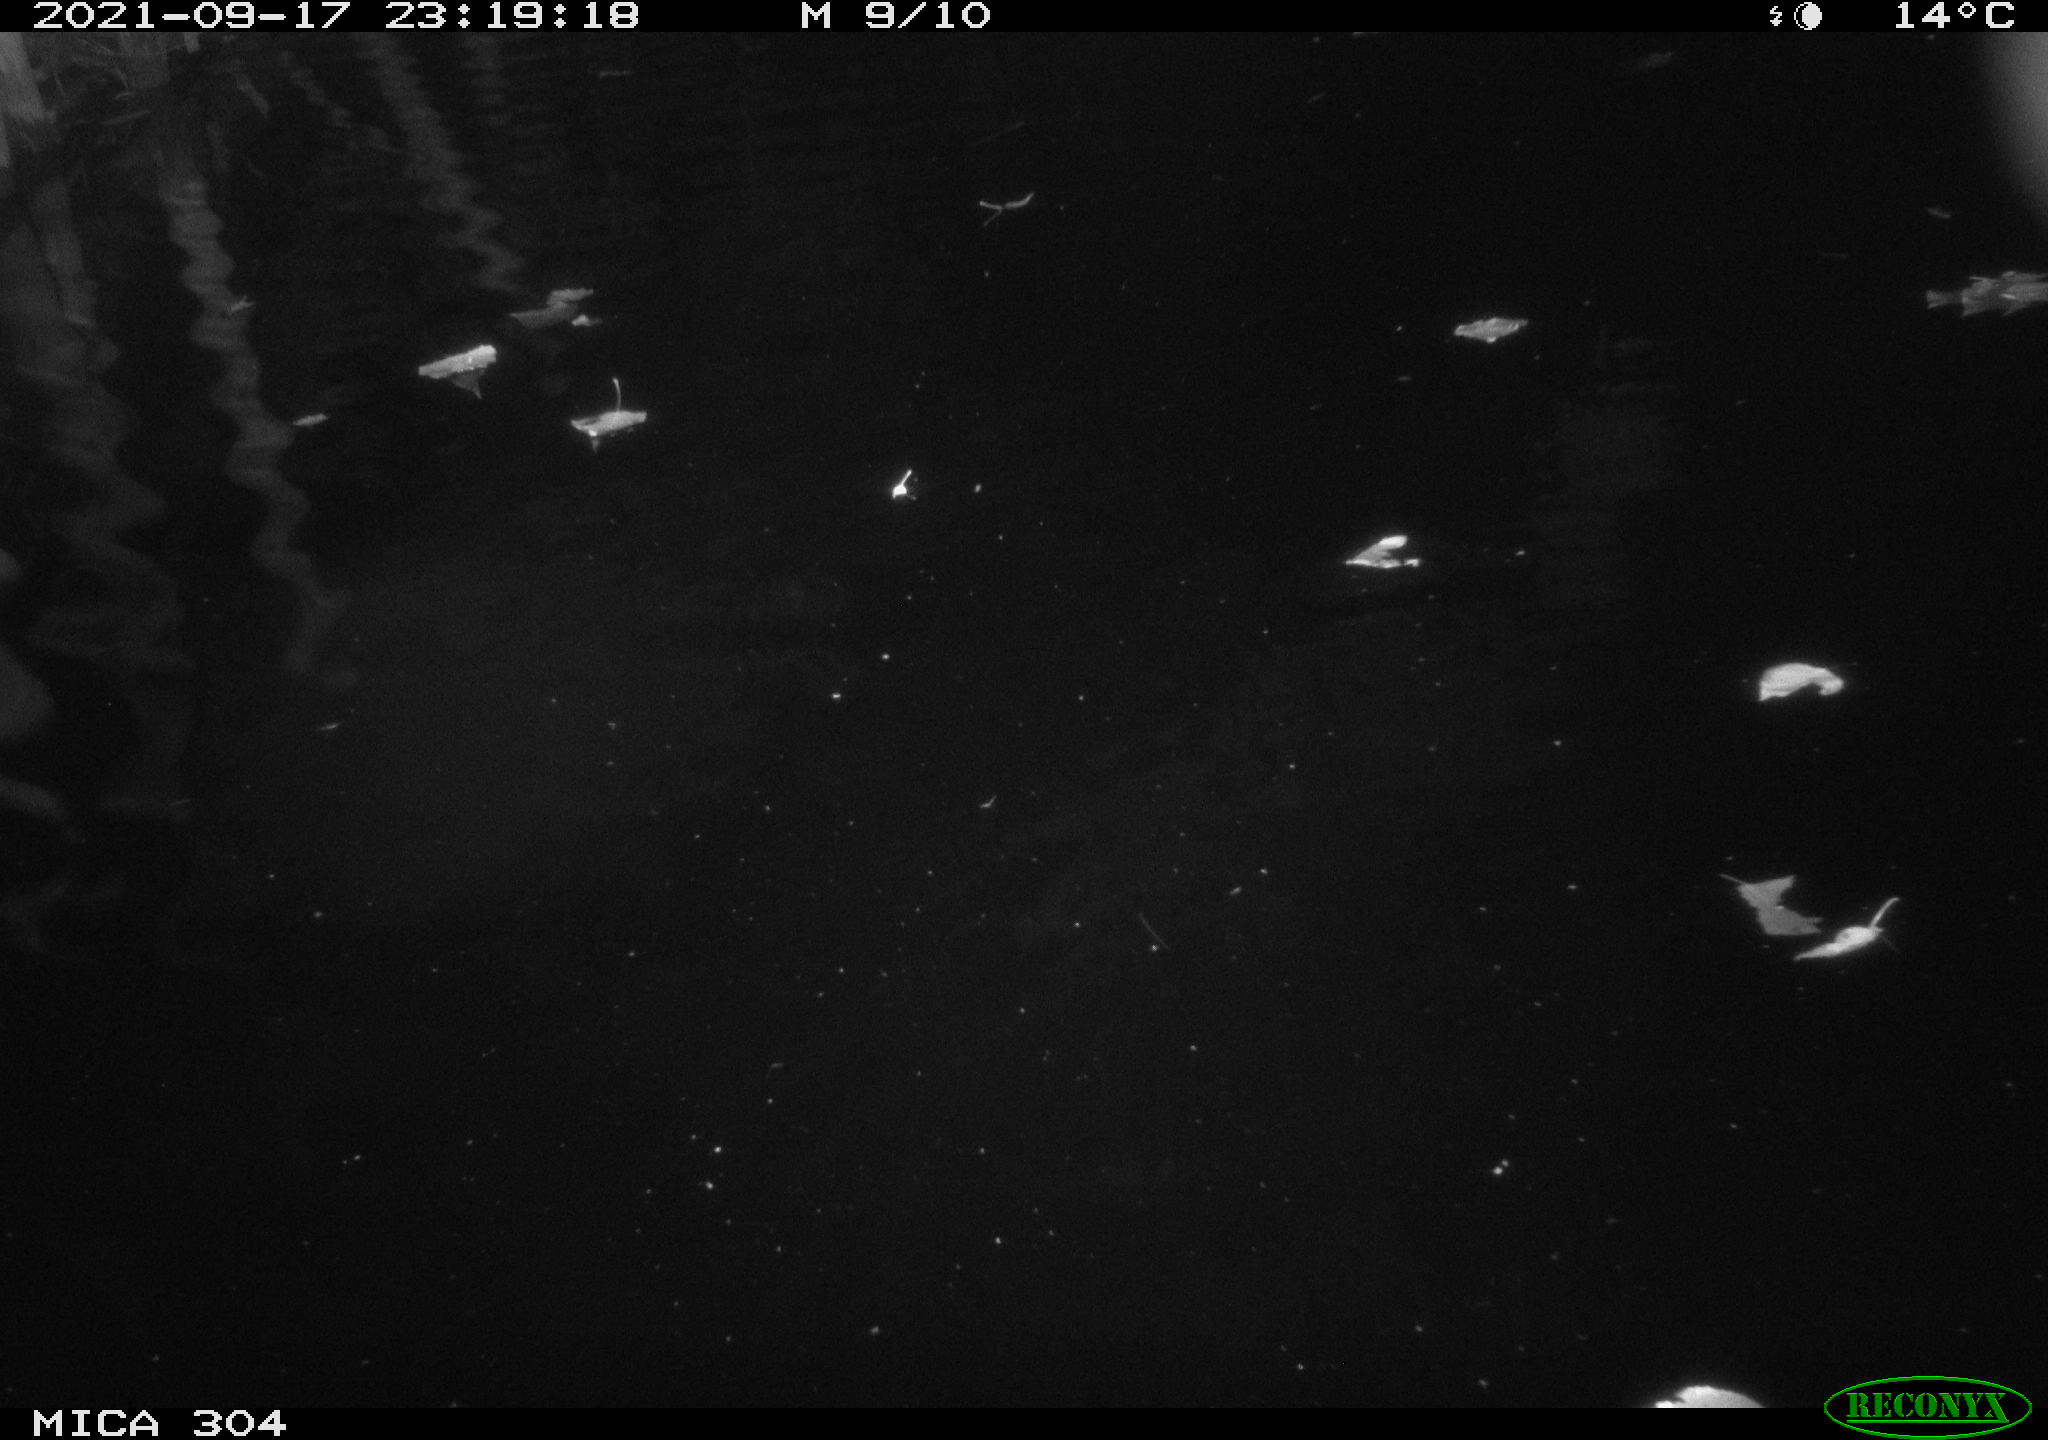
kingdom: Animalia
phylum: Chordata
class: Mammalia
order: Rodentia
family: Cricetidae
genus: Ondatra
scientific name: Ondatra zibethicus
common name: Muskrat
